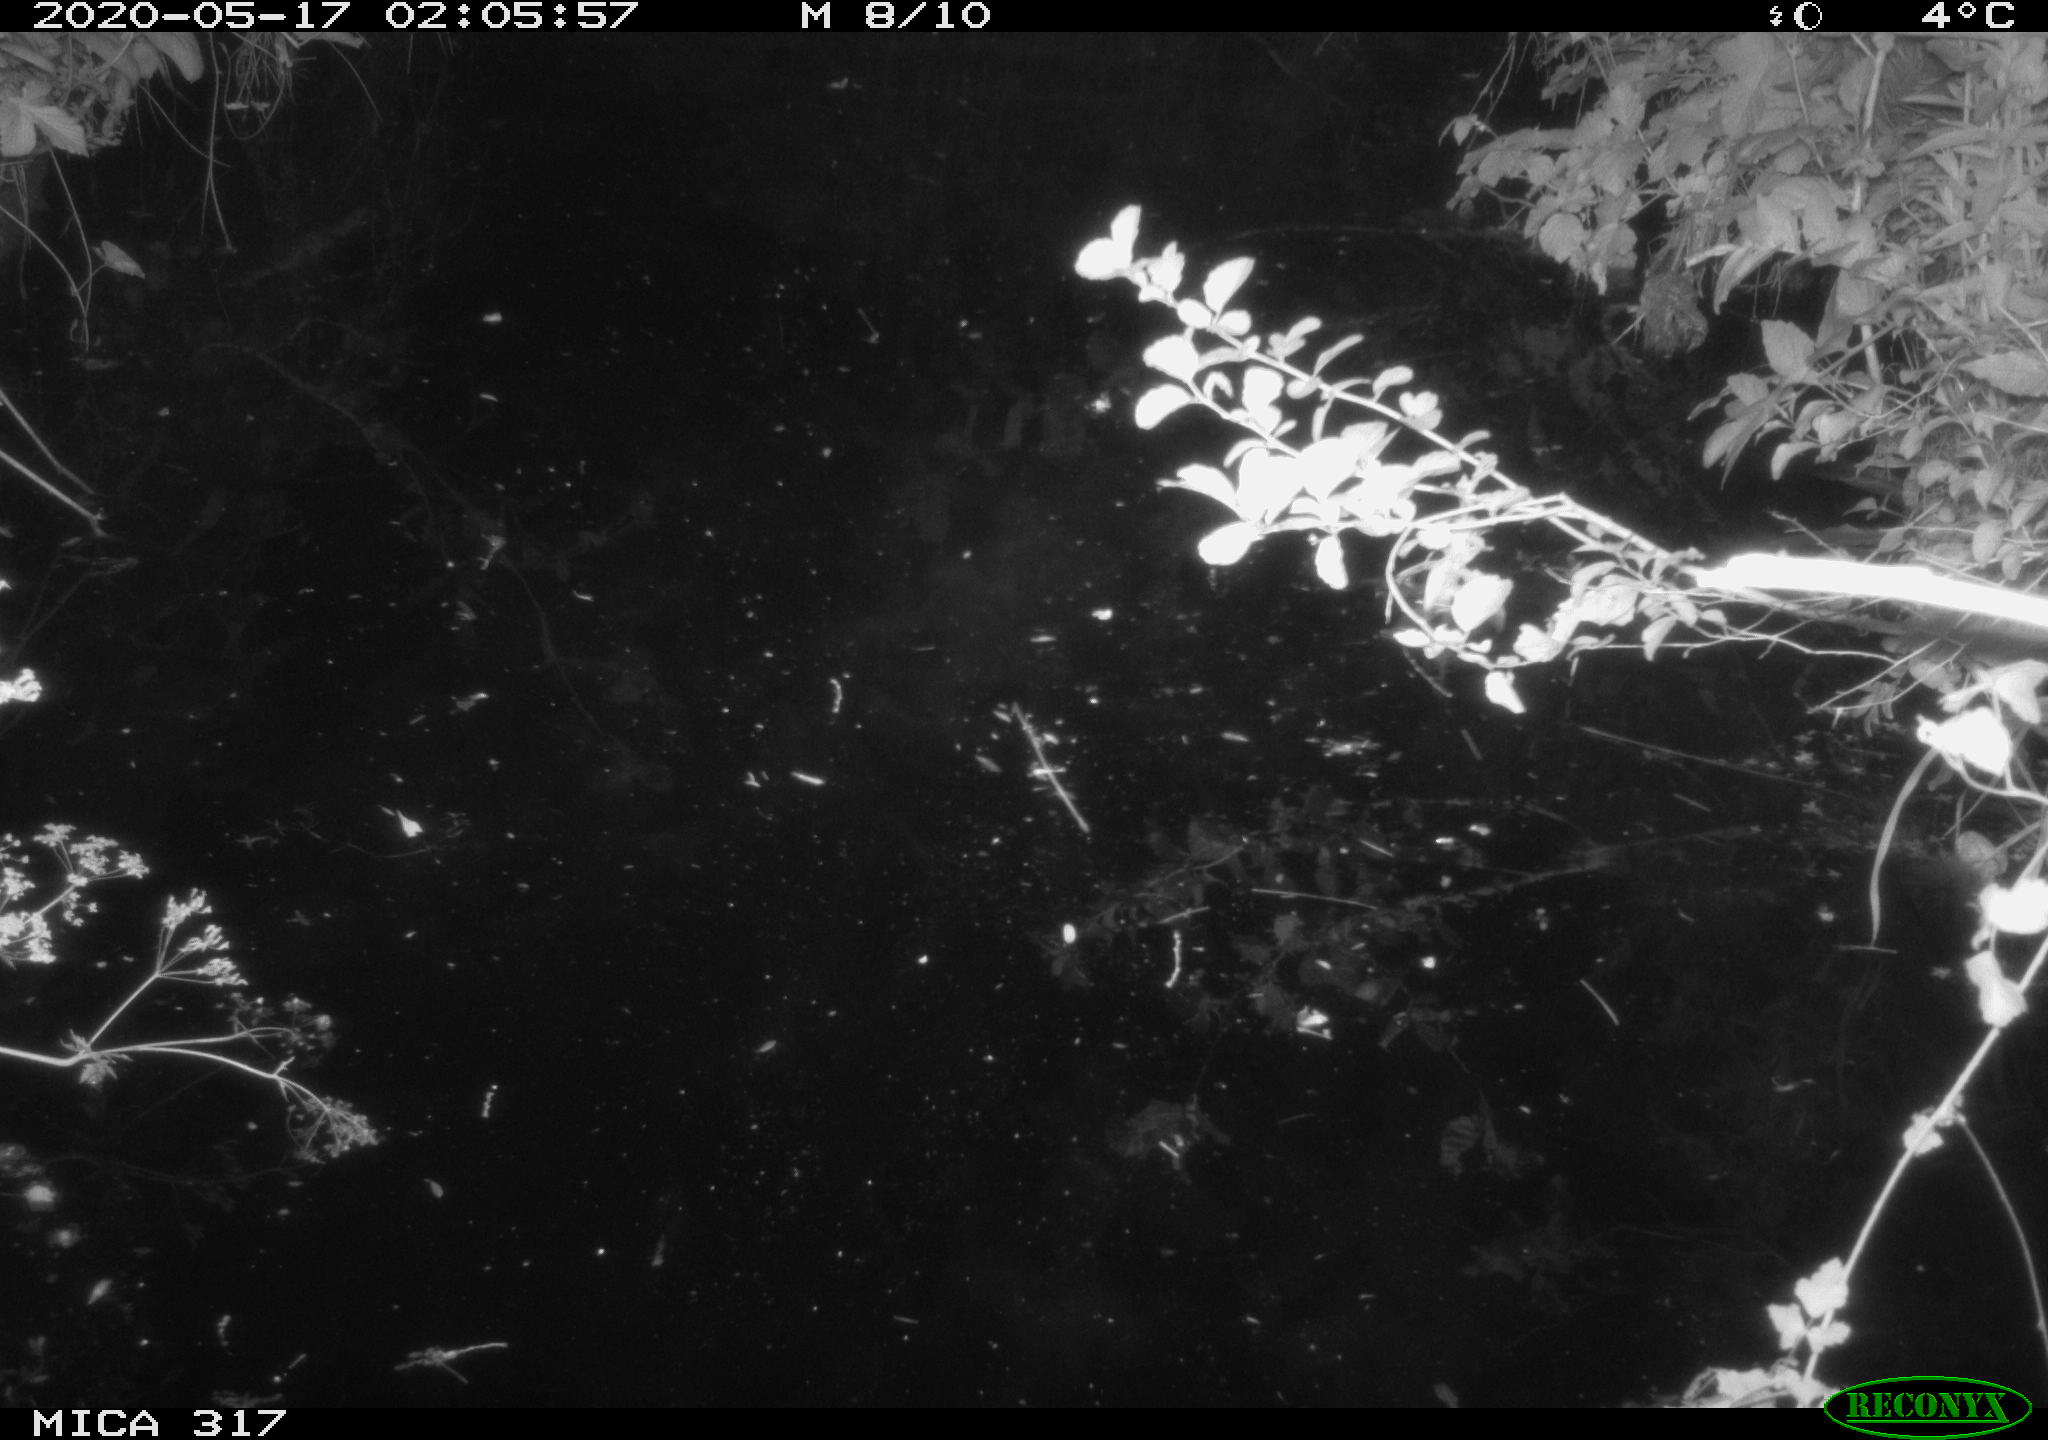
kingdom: Animalia
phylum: Chordata
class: Aves
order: Anseriformes
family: Anatidae
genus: Anas
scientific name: Anas platyrhynchos
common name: Mallard
